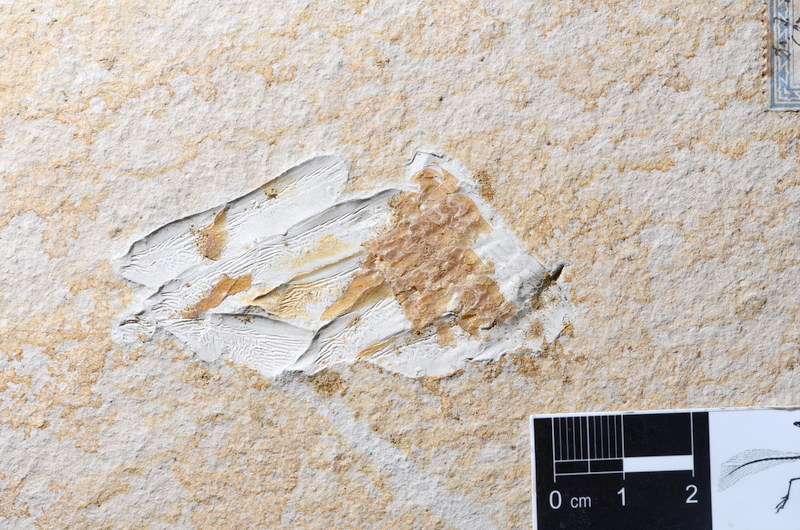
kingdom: Animalia
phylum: Chordata
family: Aspidorhynchidae
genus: Aspidorhynchus
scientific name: Aspidorhynchus acutirostris
